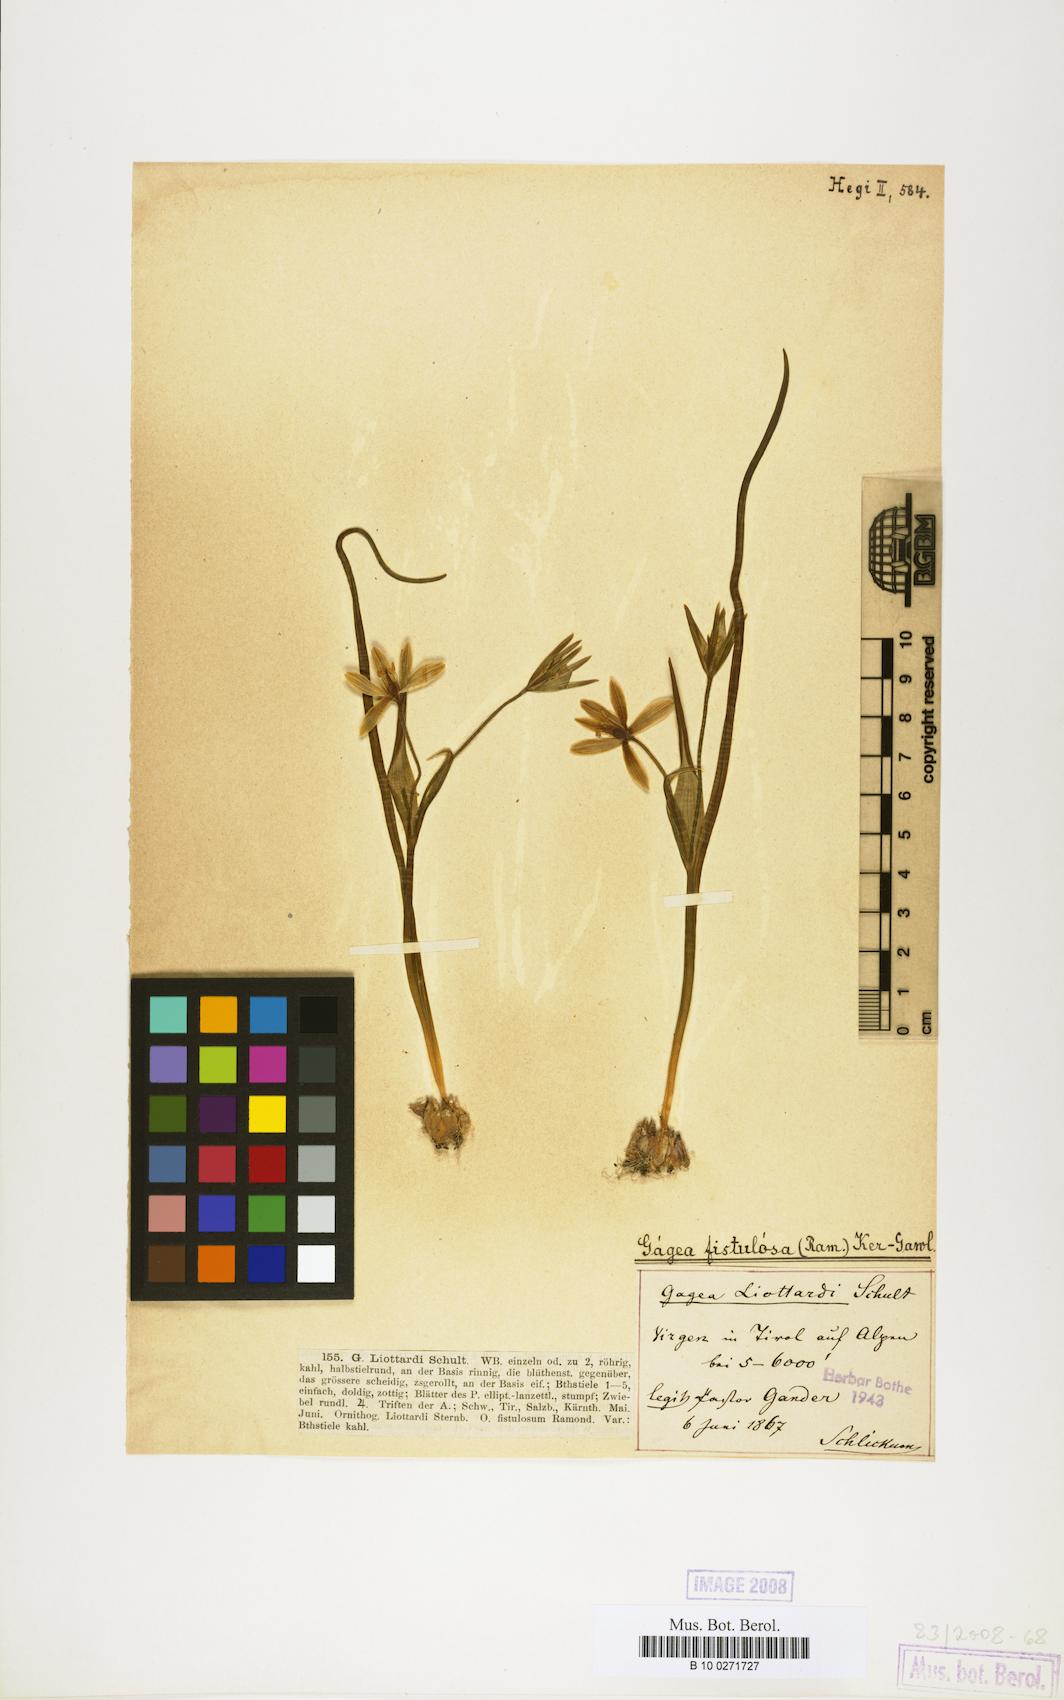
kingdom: Plantae
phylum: Tracheophyta
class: Liliopsida
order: Liliales
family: Liliaceae
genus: Gagea
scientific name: Gagea bohemica
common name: Early star-of-bethlehem
